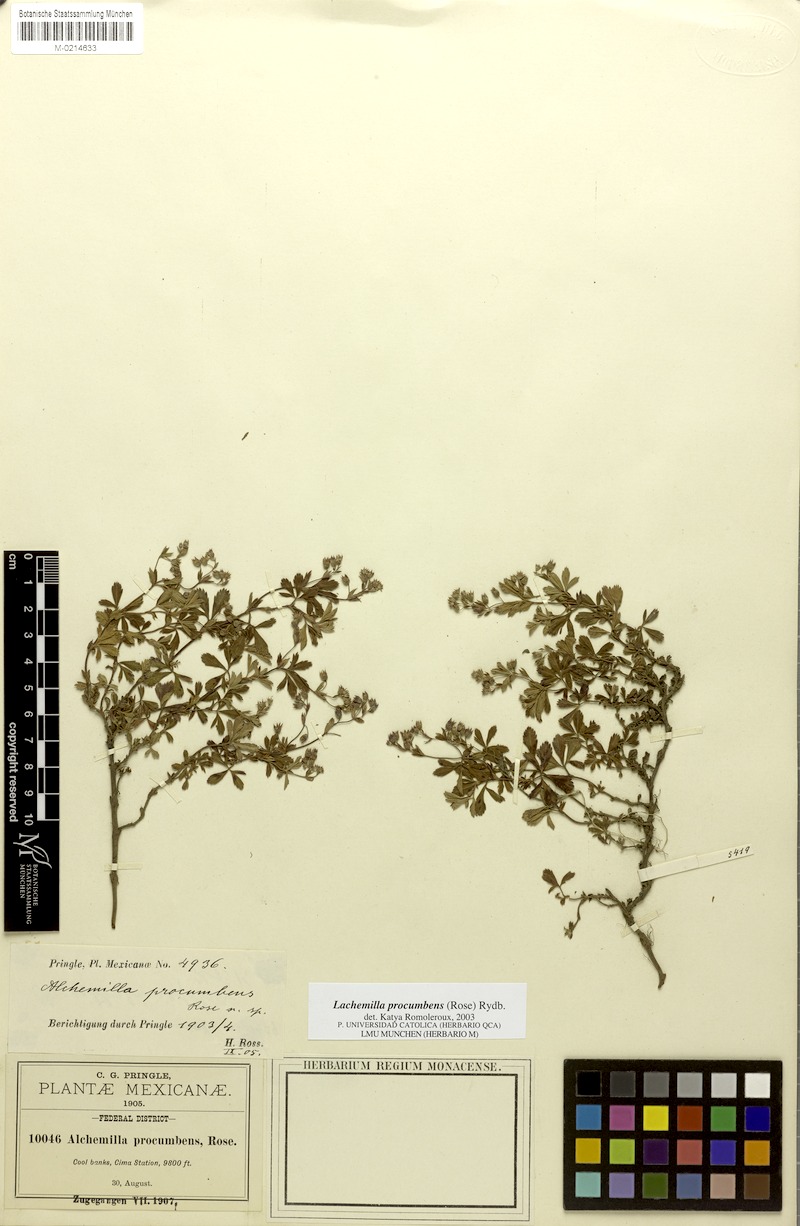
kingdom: Plantae
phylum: Tracheophyta
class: Magnoliopsida
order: Rosales
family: Rosaceae
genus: Lachemilla
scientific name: Lachemilla procumbens
